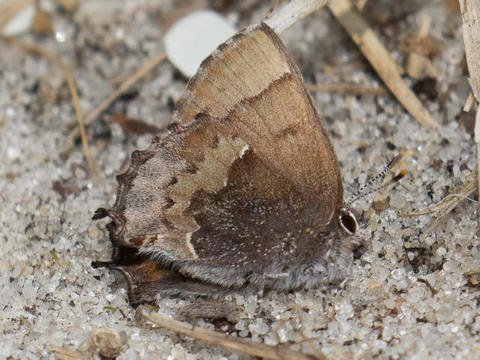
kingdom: Animalia
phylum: Arthropoda
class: Insecta
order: Lepidoptera
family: Lycaenidae
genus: Incisalia
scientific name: Incisalia henrici
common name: Henry's Elfin
